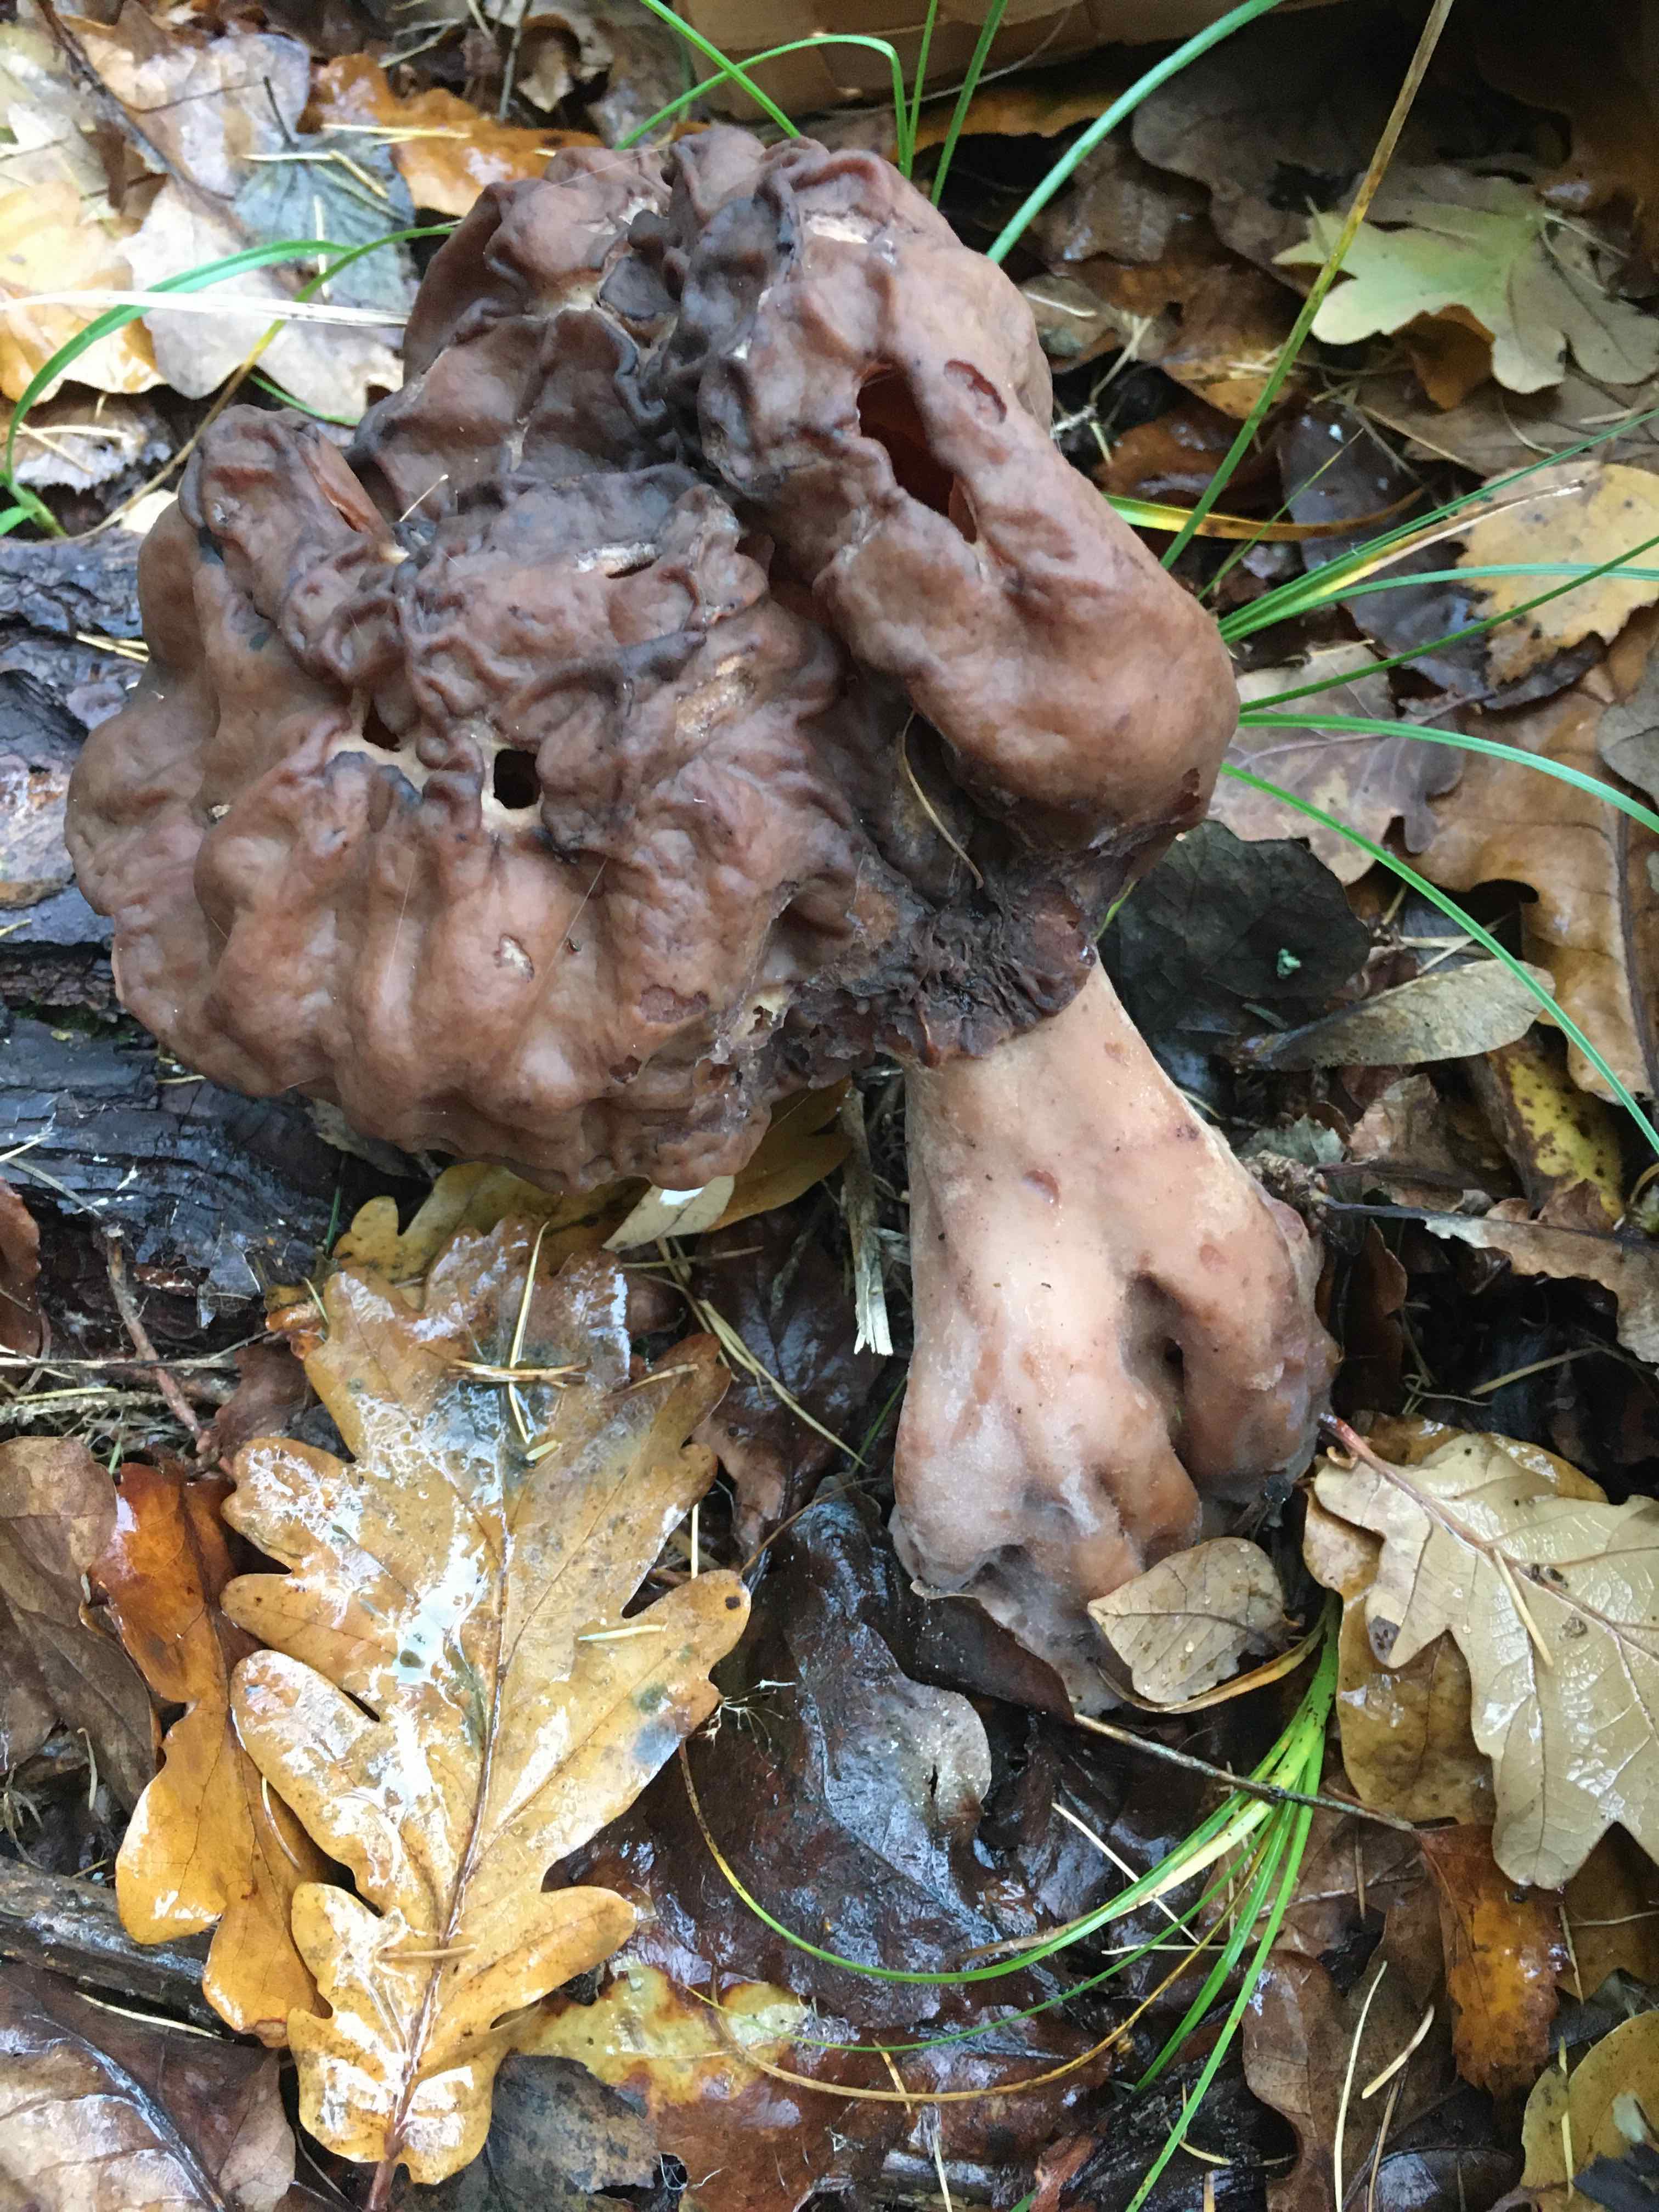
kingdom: Fungi
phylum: Ascomycota
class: Pezizomycetes
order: Pezizales
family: Discinaceae
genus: Gyromitra
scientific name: Gyromitra infula
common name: bispehue-stenmorkel
